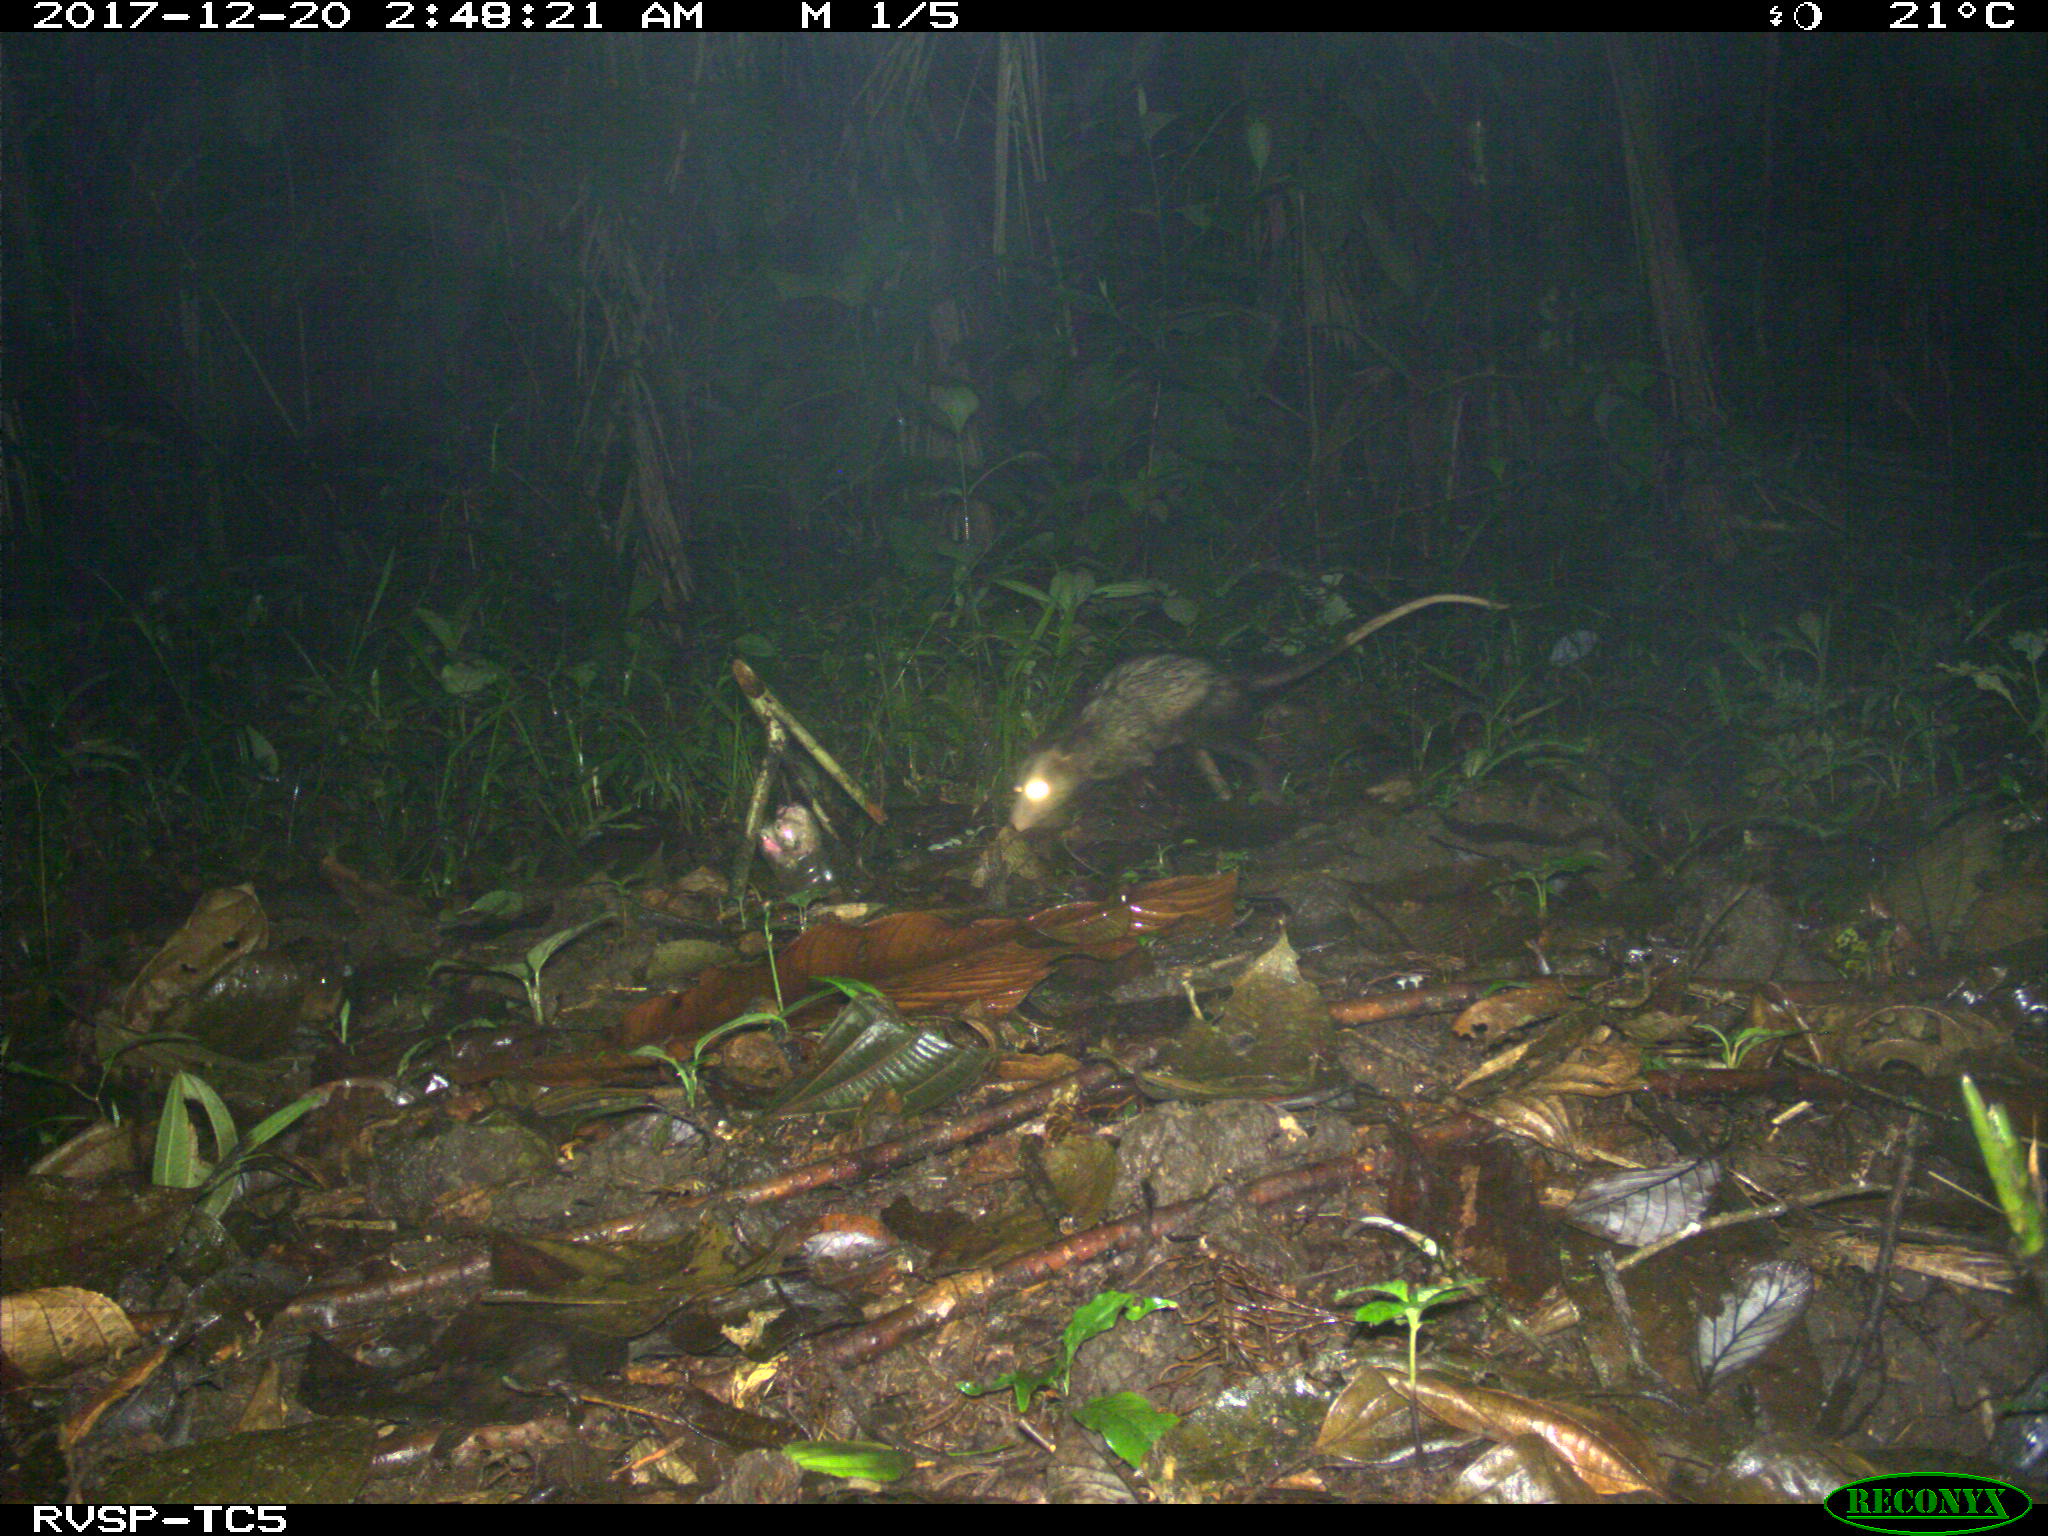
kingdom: Animalia
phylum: Chordata
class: Mammalia
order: Didelphimorphia
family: Didelphidae
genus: Didelphis
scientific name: Didelphis marsupialis
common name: Common opossum
